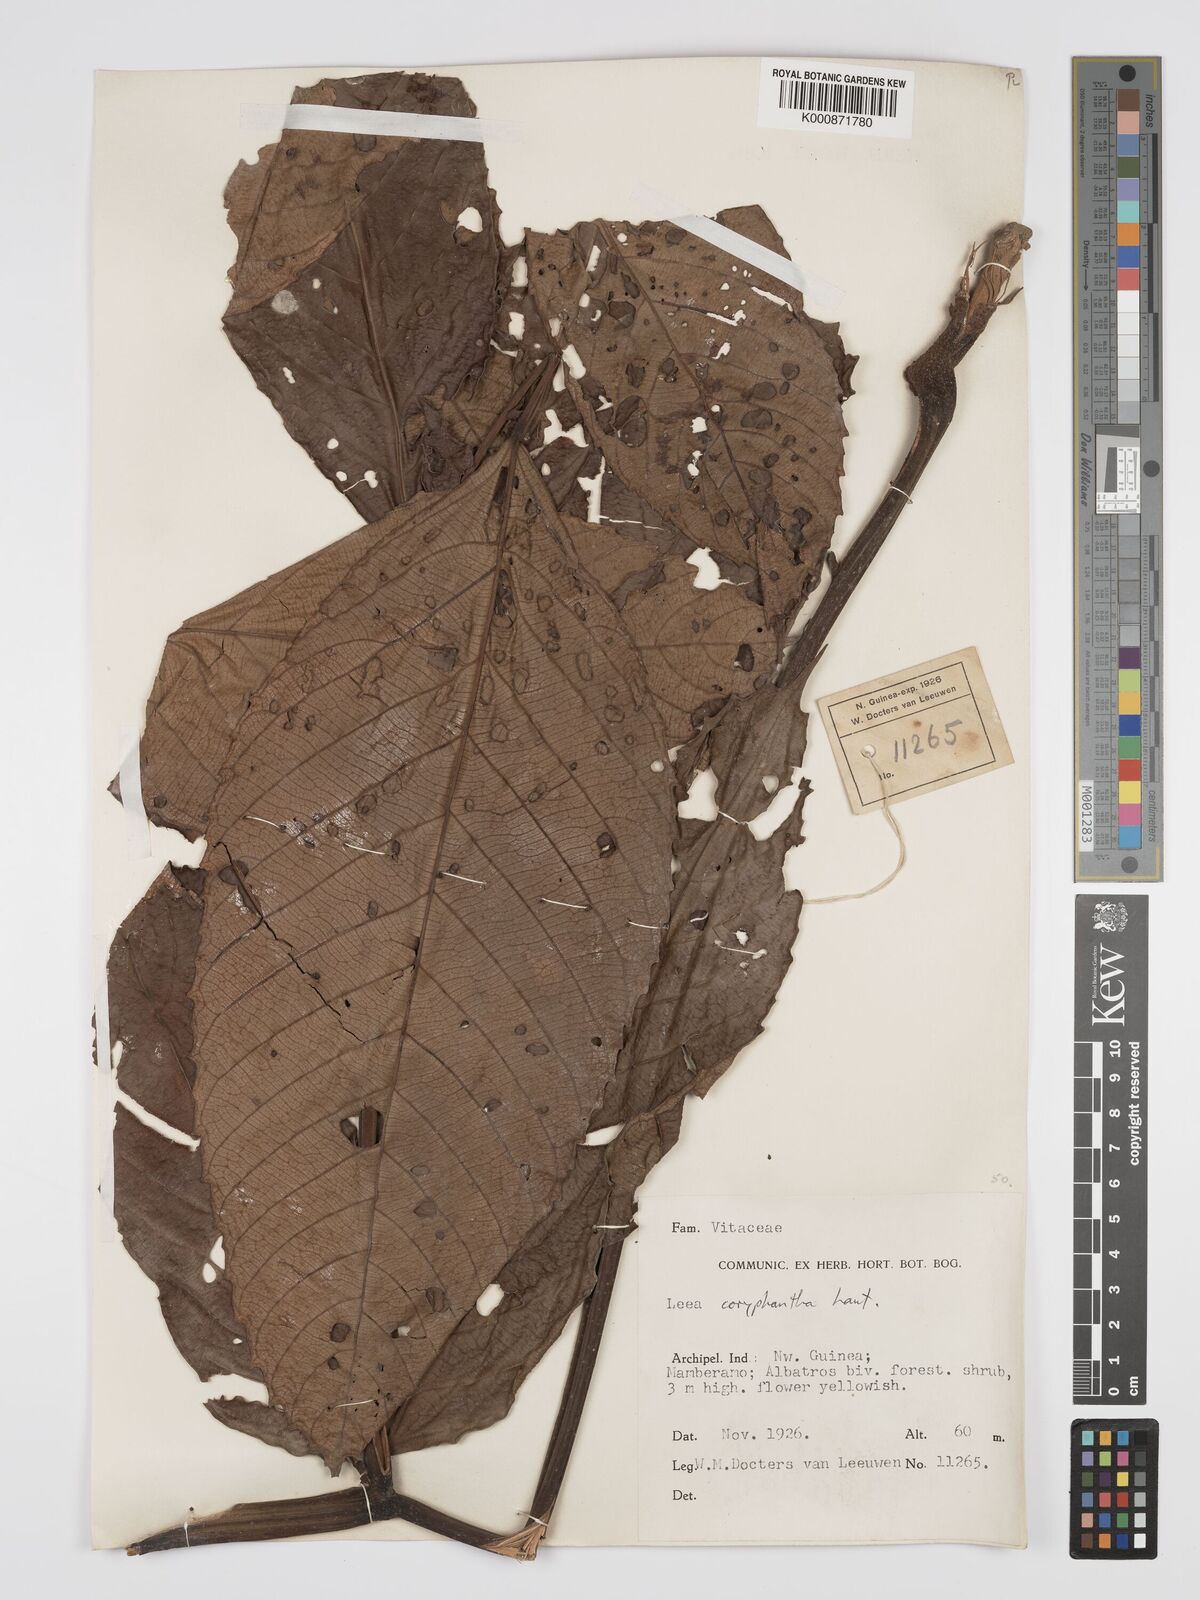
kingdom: Plantae
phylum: Tracheophyta
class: Magnoliopsida
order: Vitales
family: Vitaceae
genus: Leea
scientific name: Leea coryphantha
